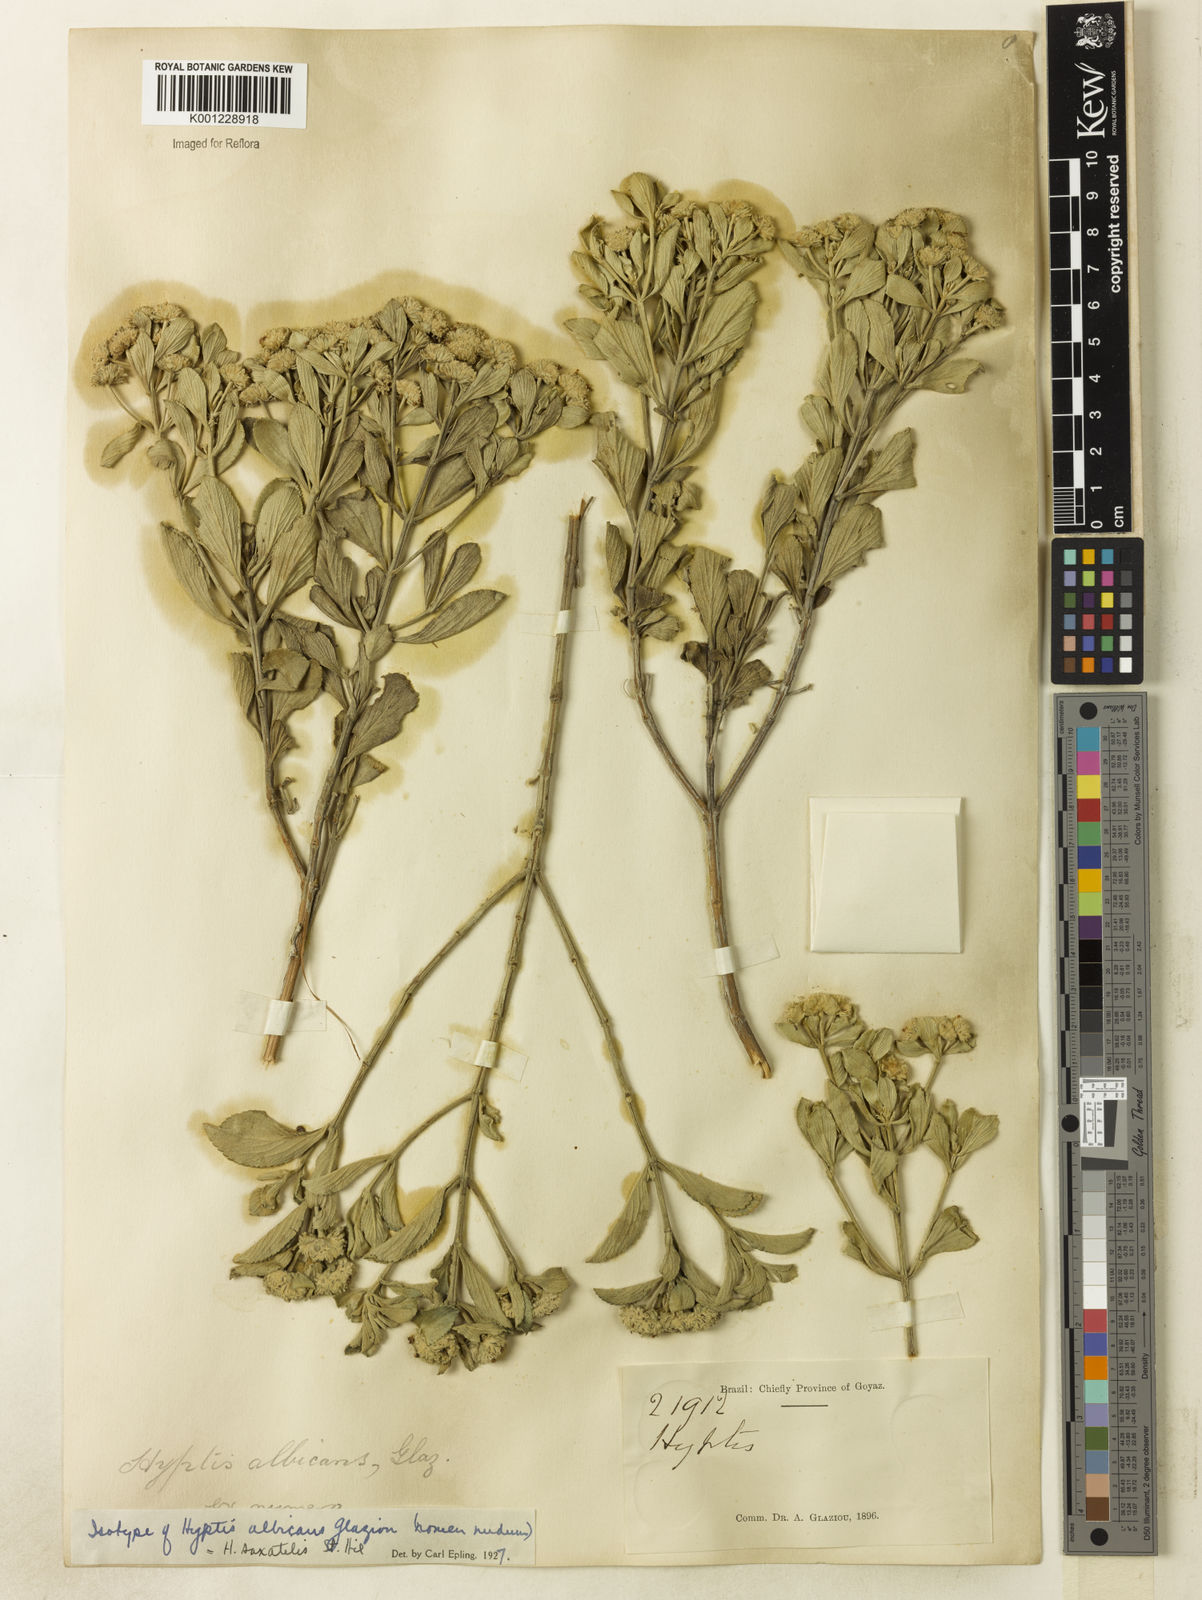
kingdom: Plantae
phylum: Tracheophyta
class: Magnoliopsida
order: Lamiales
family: Lamiaceae
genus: Hyptis
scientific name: Hyptis saxatilis
